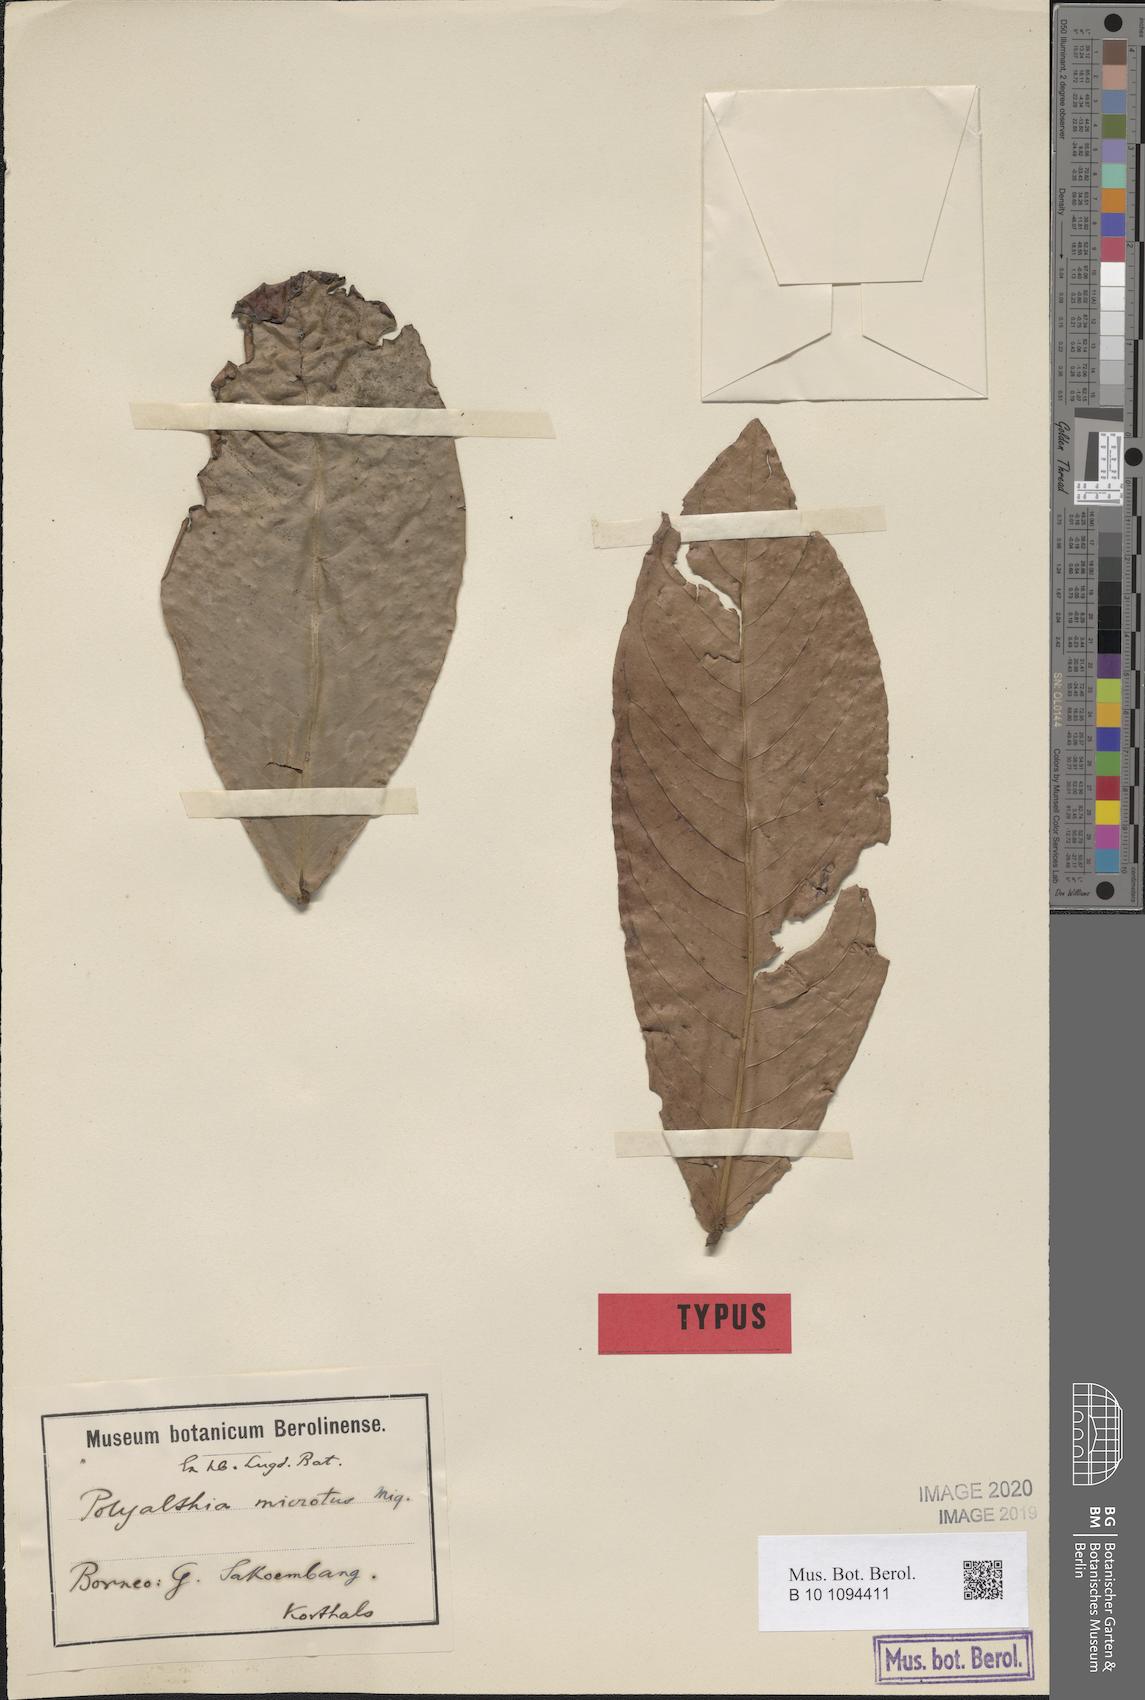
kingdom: Plantae
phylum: Tracheophyta
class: Magnoliopsida
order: Magnoliales
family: Annonaceae
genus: Polyalthia
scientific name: Polyalthia microtus
